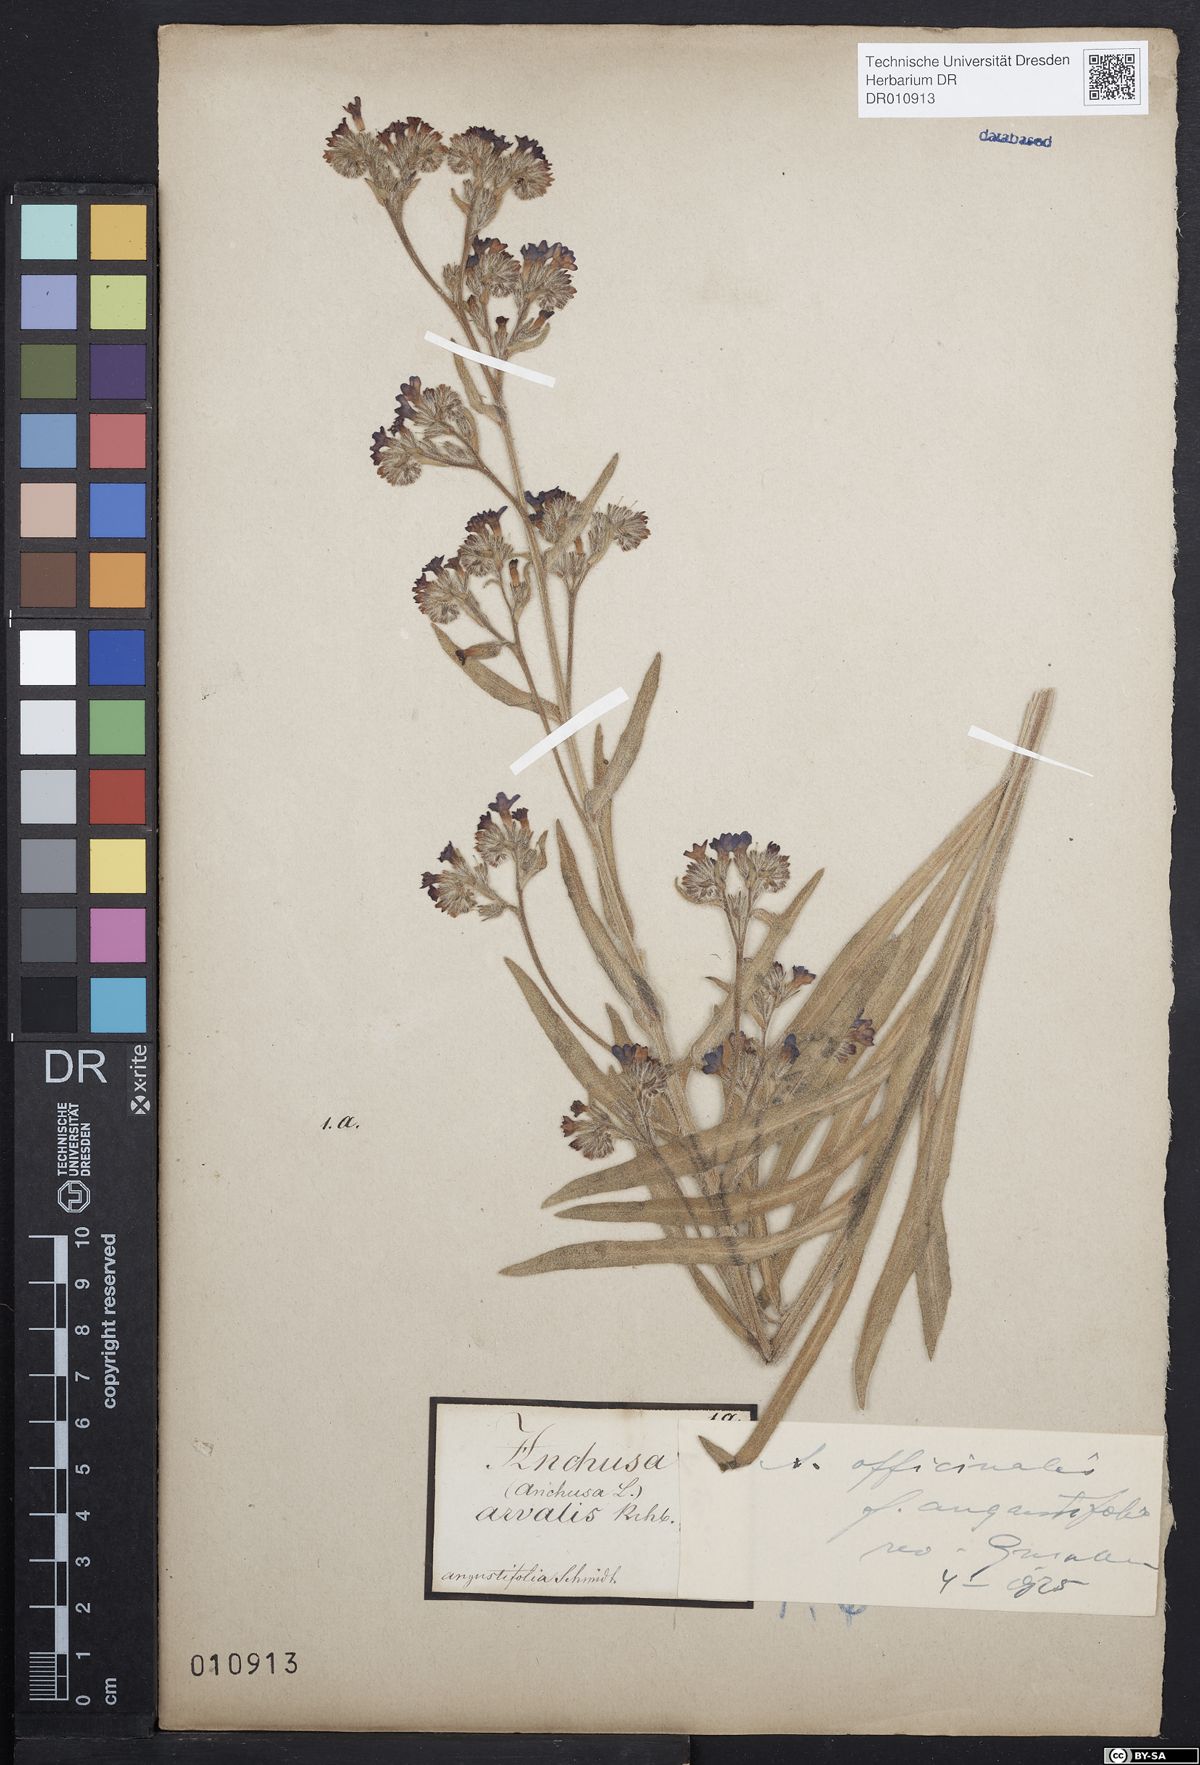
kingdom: Plantae
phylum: Tracheophyta
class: Magnoliopsida
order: Boraginales
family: Boraginaceae
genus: Anchusa
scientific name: Anchusa officinalis
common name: Alkanet
